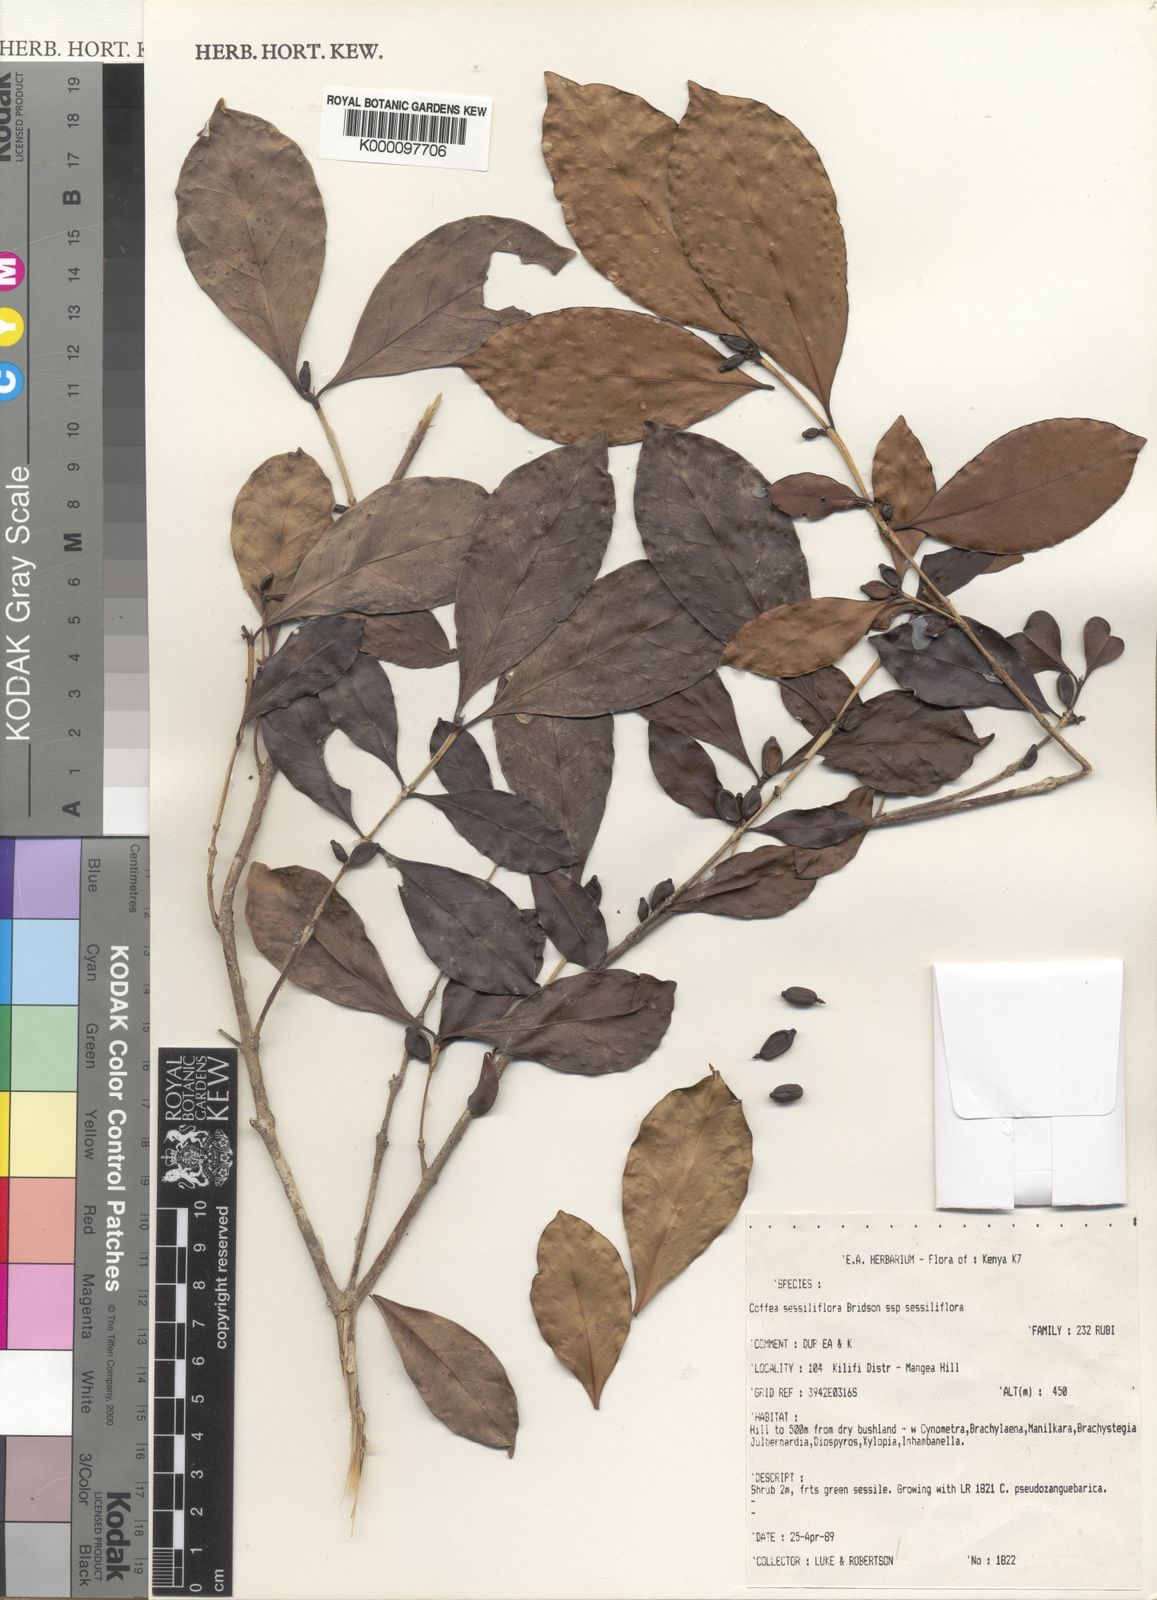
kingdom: Plantae
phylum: Tracheophyta
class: Magnoliopsida
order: Gentianales
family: Rubiaceae
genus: Coffea
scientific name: Coffea sessiliflora
